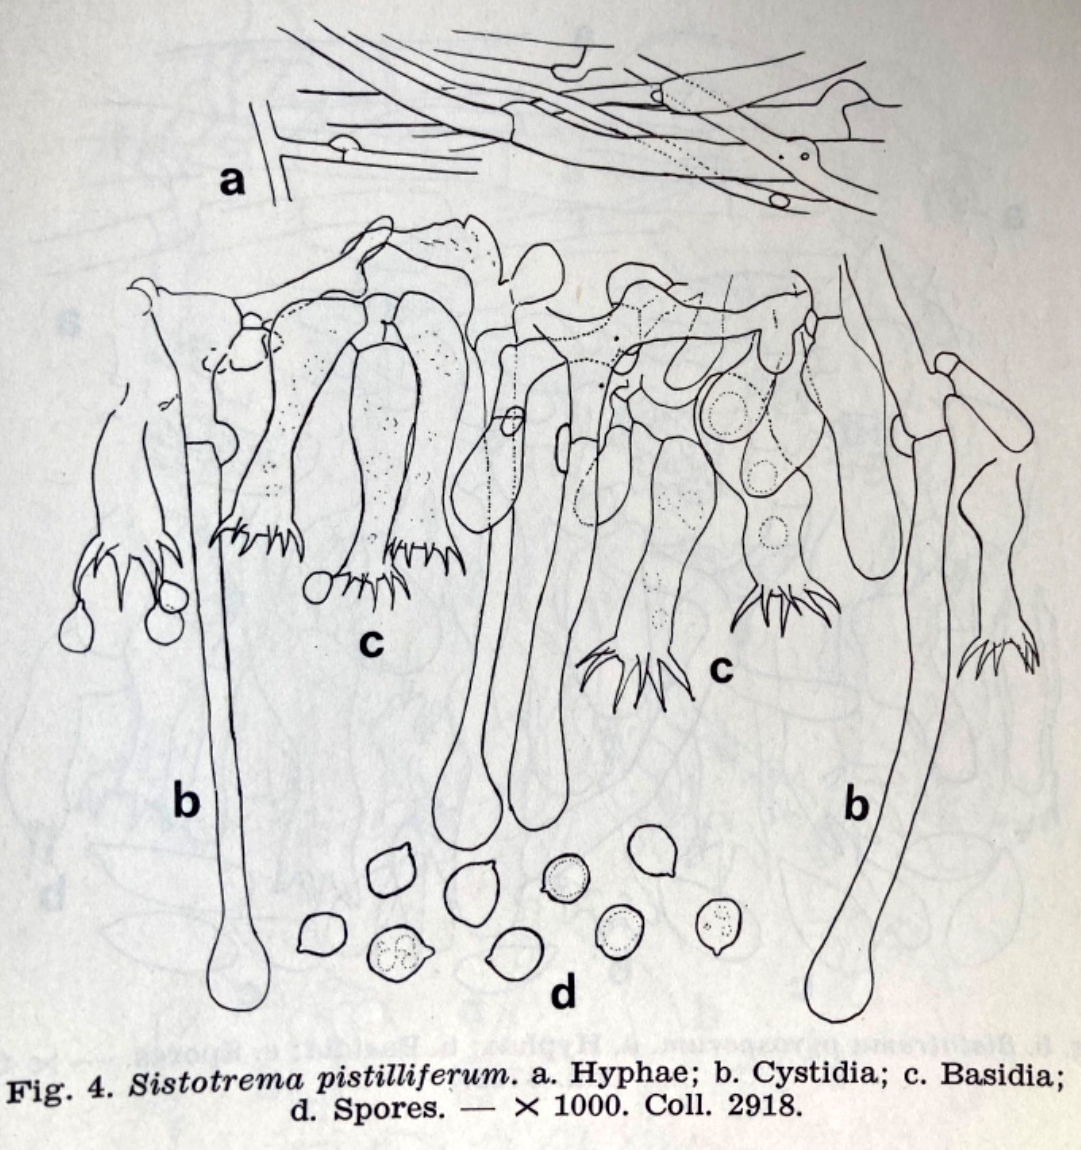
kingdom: Fungi
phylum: Basidiomycota
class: Agaricomycetes
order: Cantharellales
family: Hydnaceae
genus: Sistotrema
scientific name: Sistotrema pistilliferum
